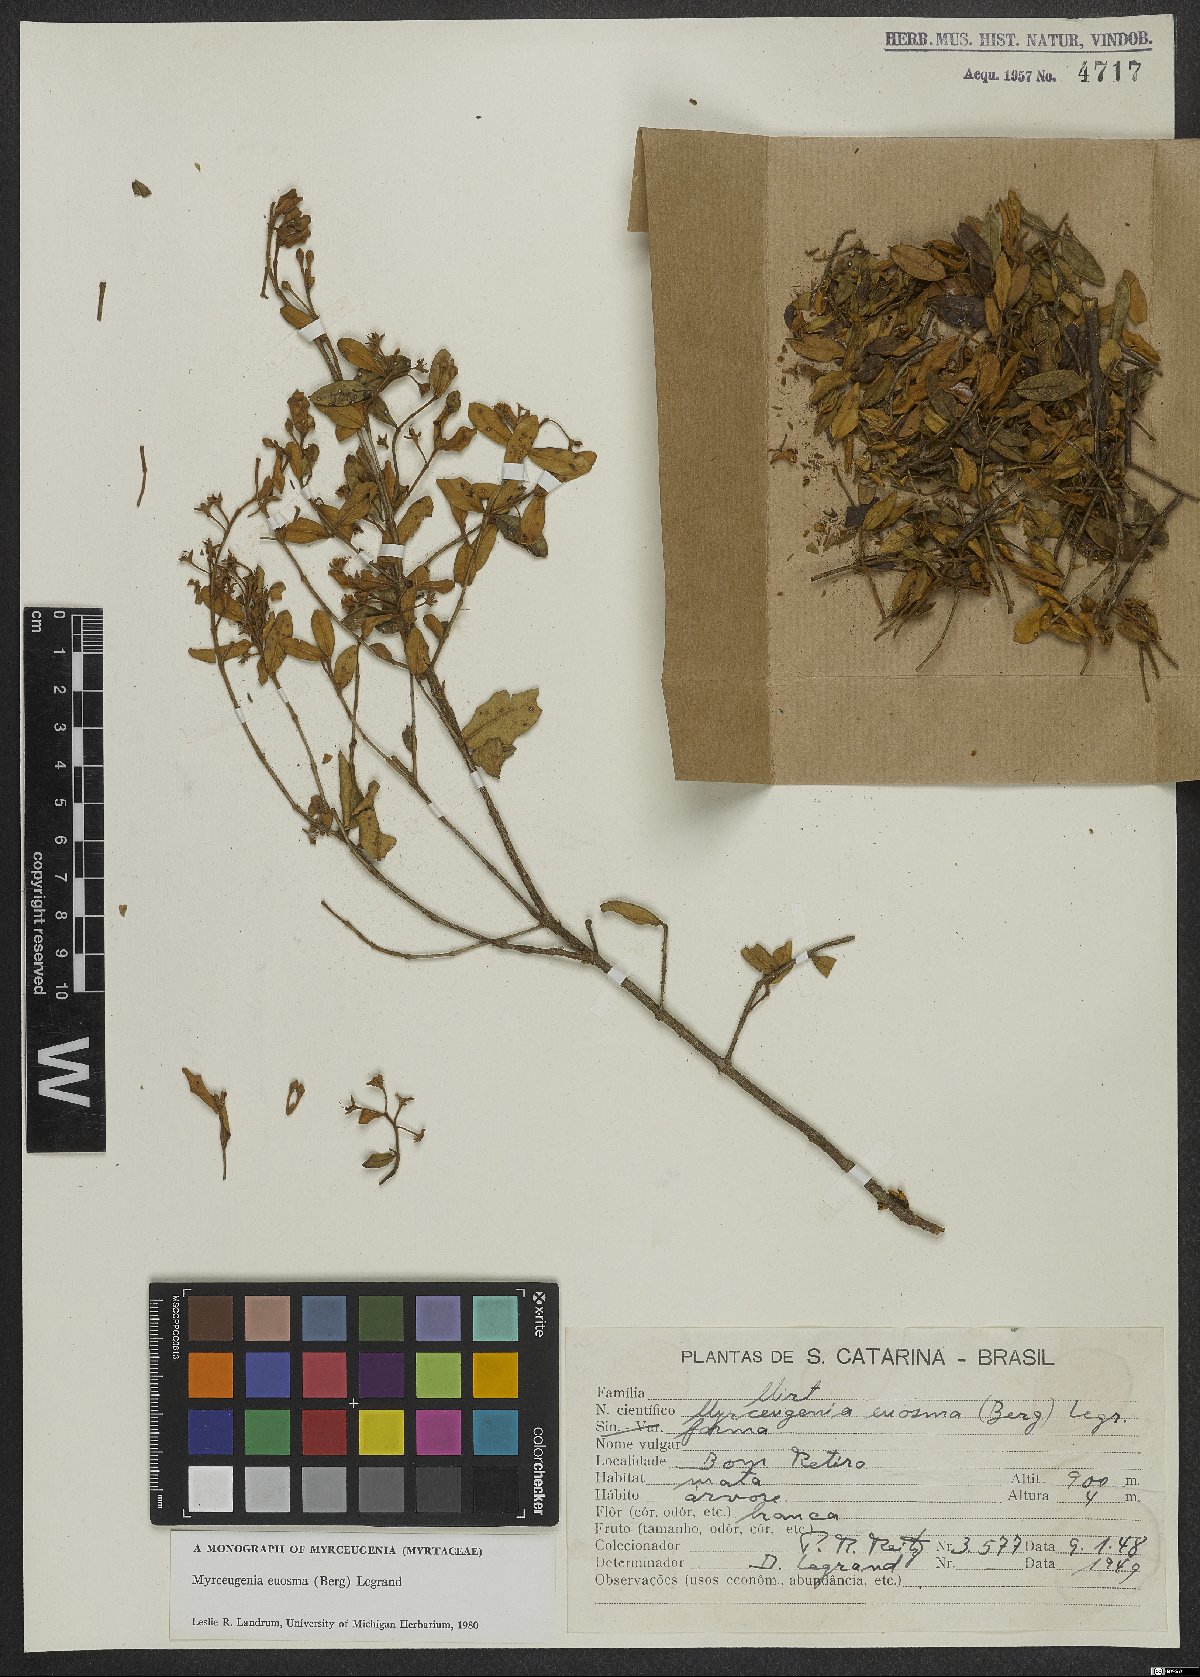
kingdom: Plantae
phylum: Tracheophyta
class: Magnoliopsida
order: Myrtales
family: Myrtaceae
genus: Myrceugenia
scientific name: Myrceugenia euosma
